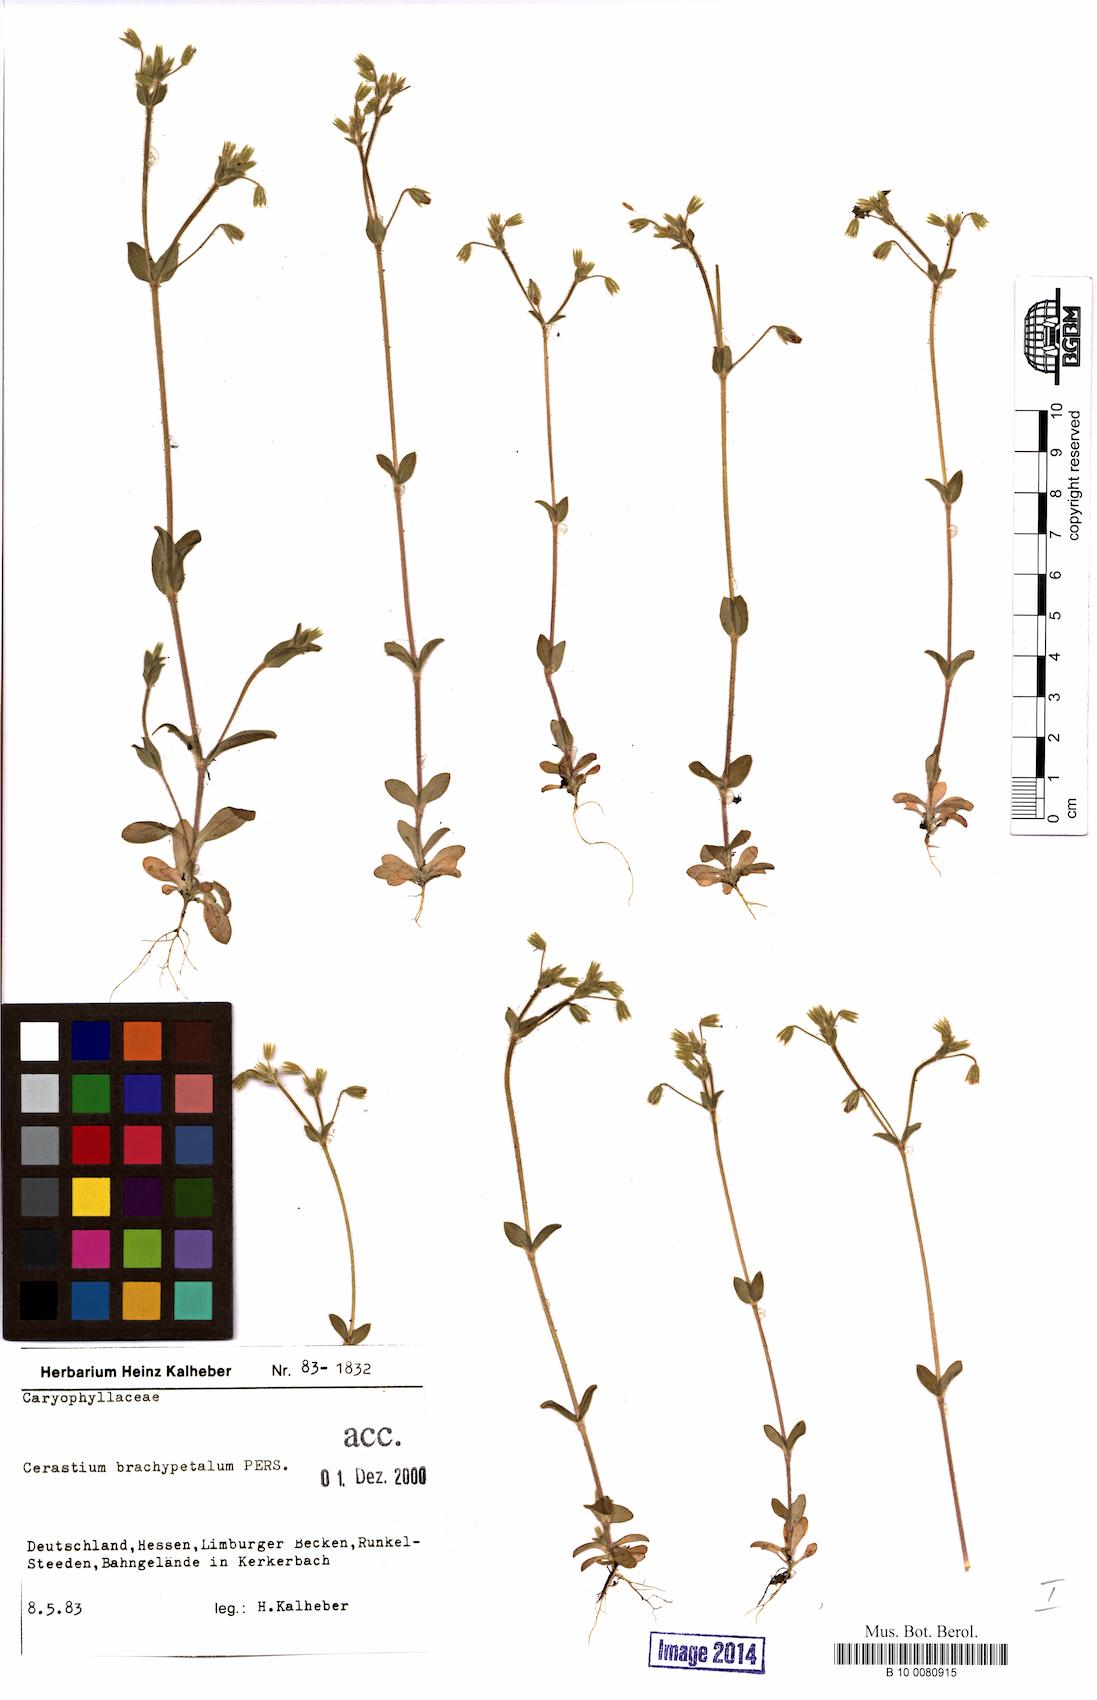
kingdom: Plantae
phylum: Tracheophyta
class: Magnoliopsida
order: Caryophyllales
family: Caryophyllaceae
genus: Cerastium
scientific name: Cerastium brachypetalum
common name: Grey mouse-ear
